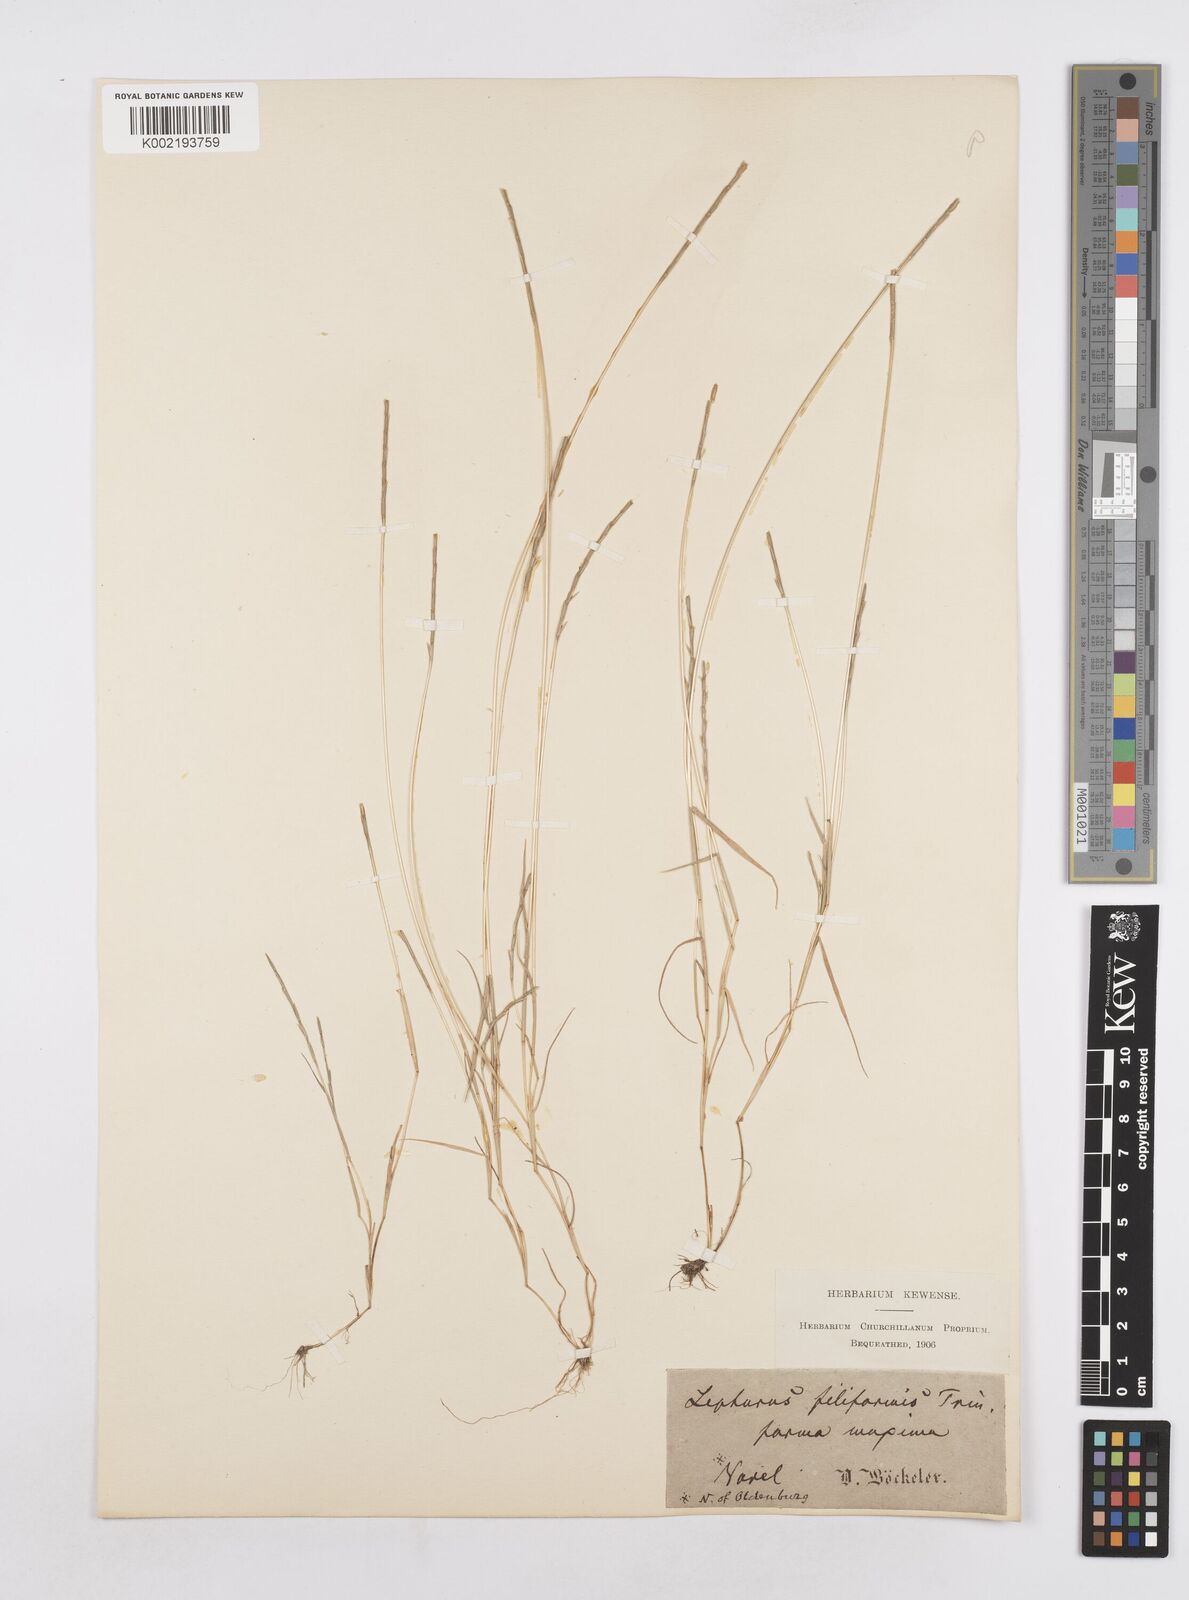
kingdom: Plantae
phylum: Tracheophyta
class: Liliopsida
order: Poales
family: Poaceae
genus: Parapholis
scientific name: Parapholis
